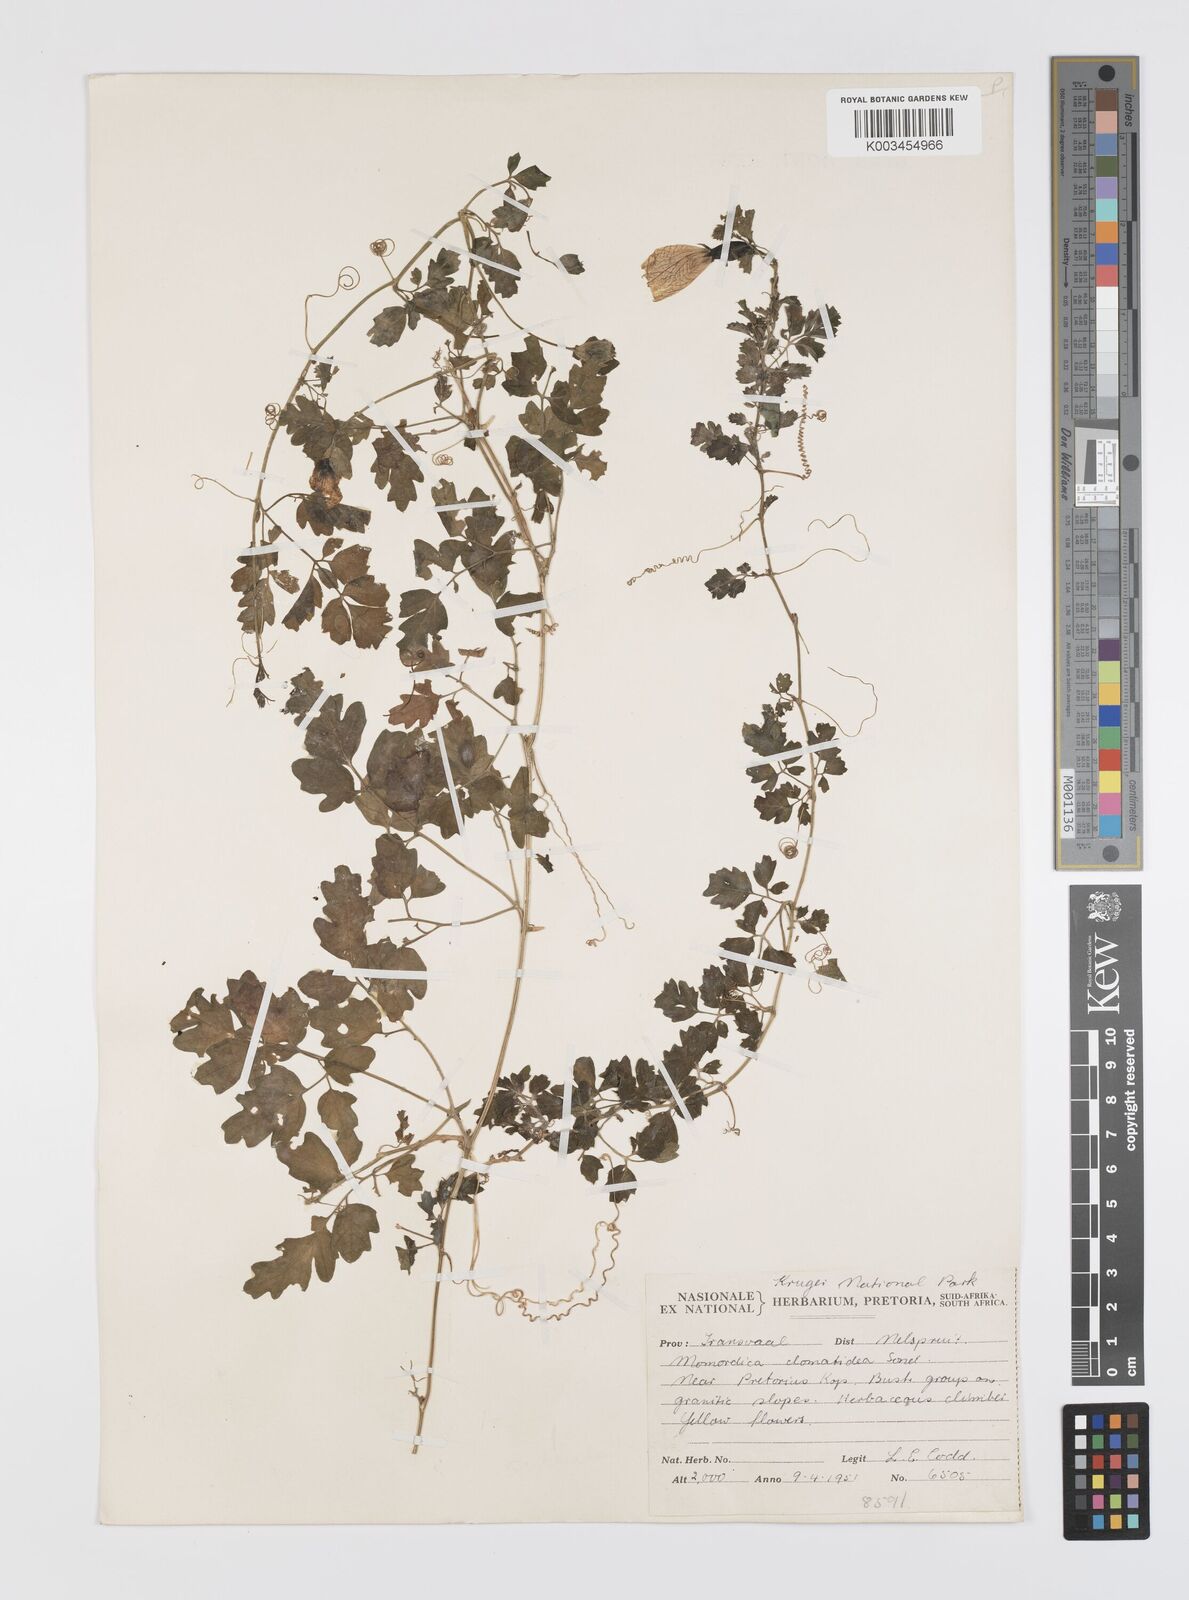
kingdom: Plantae
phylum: Tracheophyta
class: Magnoliopsida
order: Cucurbitales
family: Cucurbitaceae
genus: Momordica
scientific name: Momordica cardiospermoides
